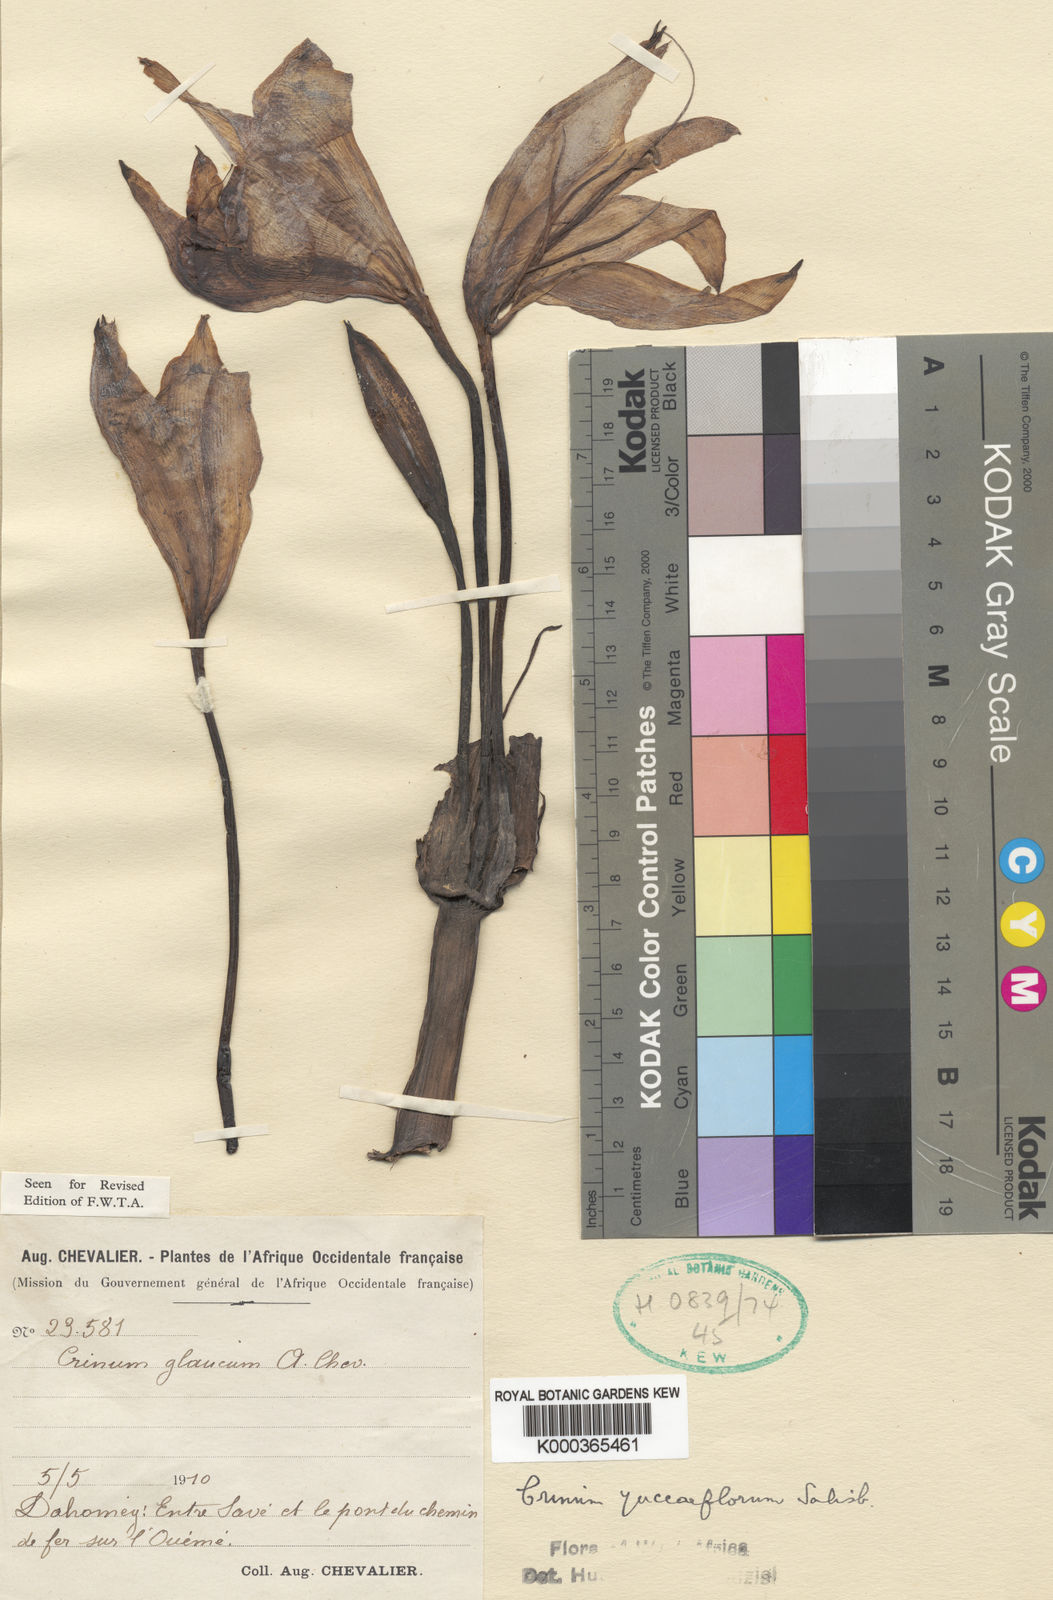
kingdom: Plantae
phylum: Tracheophyta
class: Liliopsida
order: Asparagales
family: Amaryllidaceae
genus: Crinum
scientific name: Crinum glaucum
